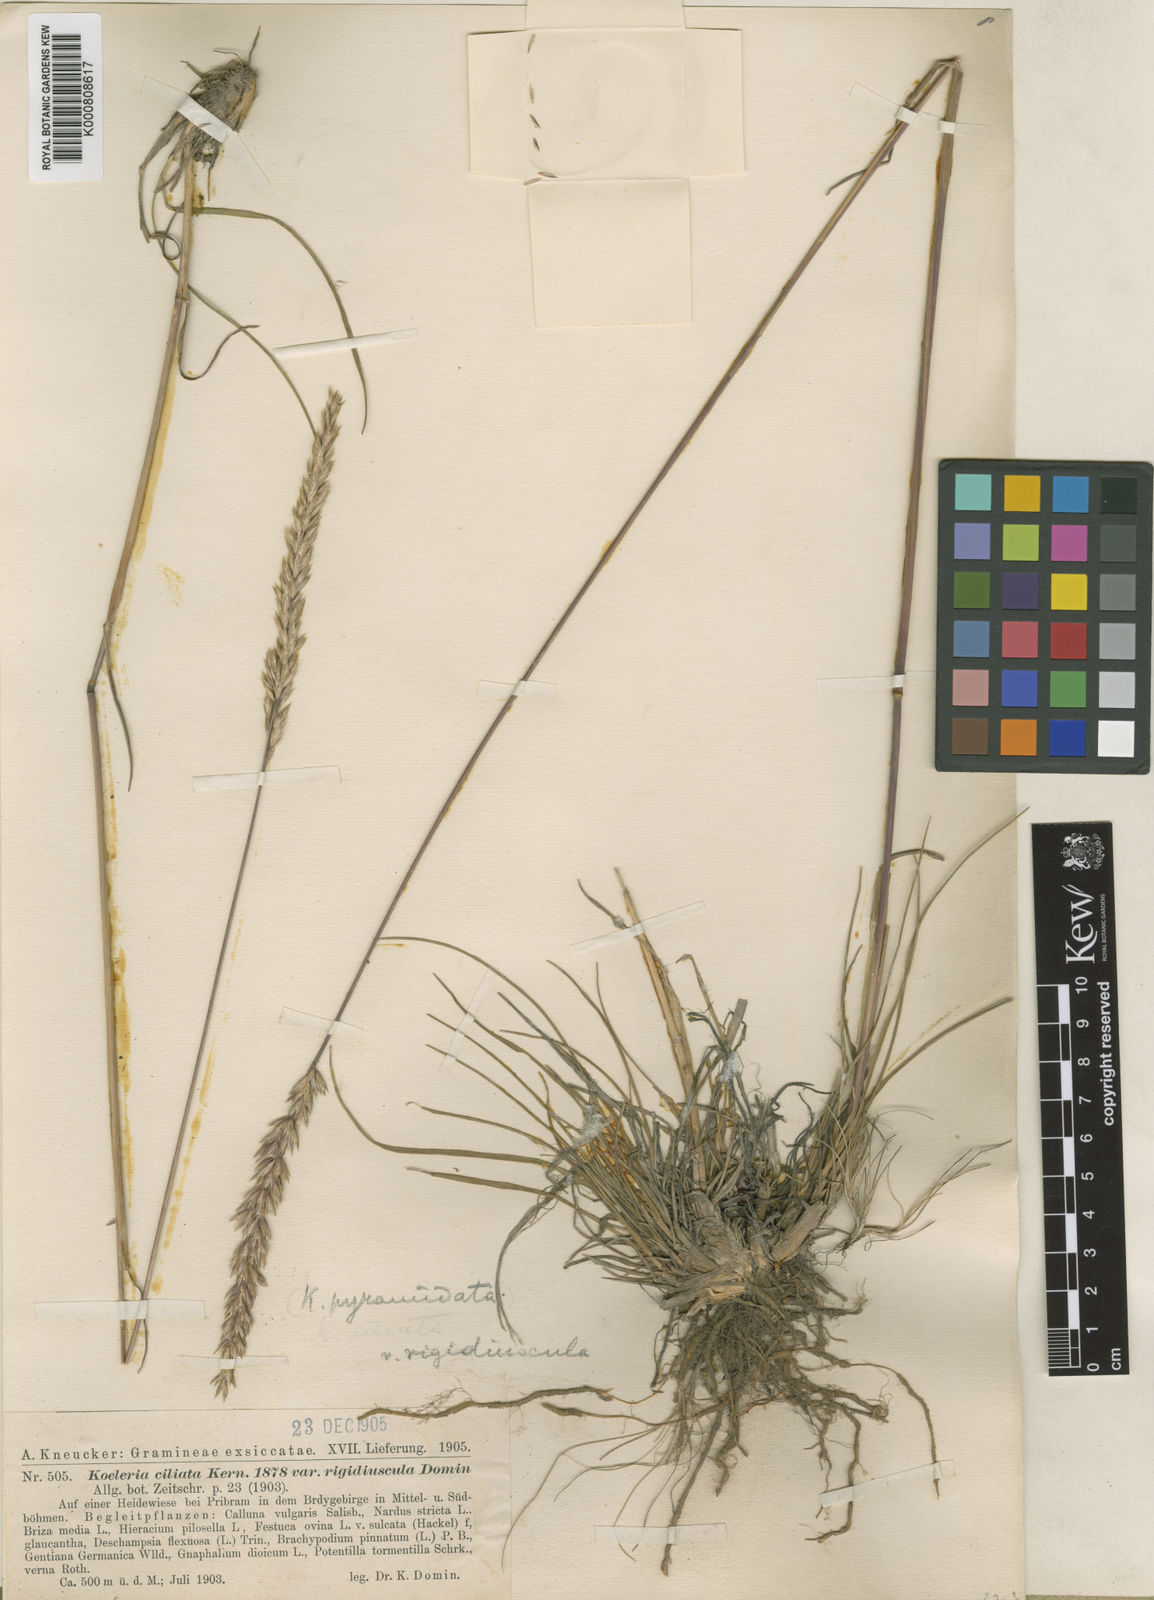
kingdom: Plantae
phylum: Tracheophyta
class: Liliopsida
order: Poales
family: Poaceae
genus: Koeleria
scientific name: Koeleria pyramidata
